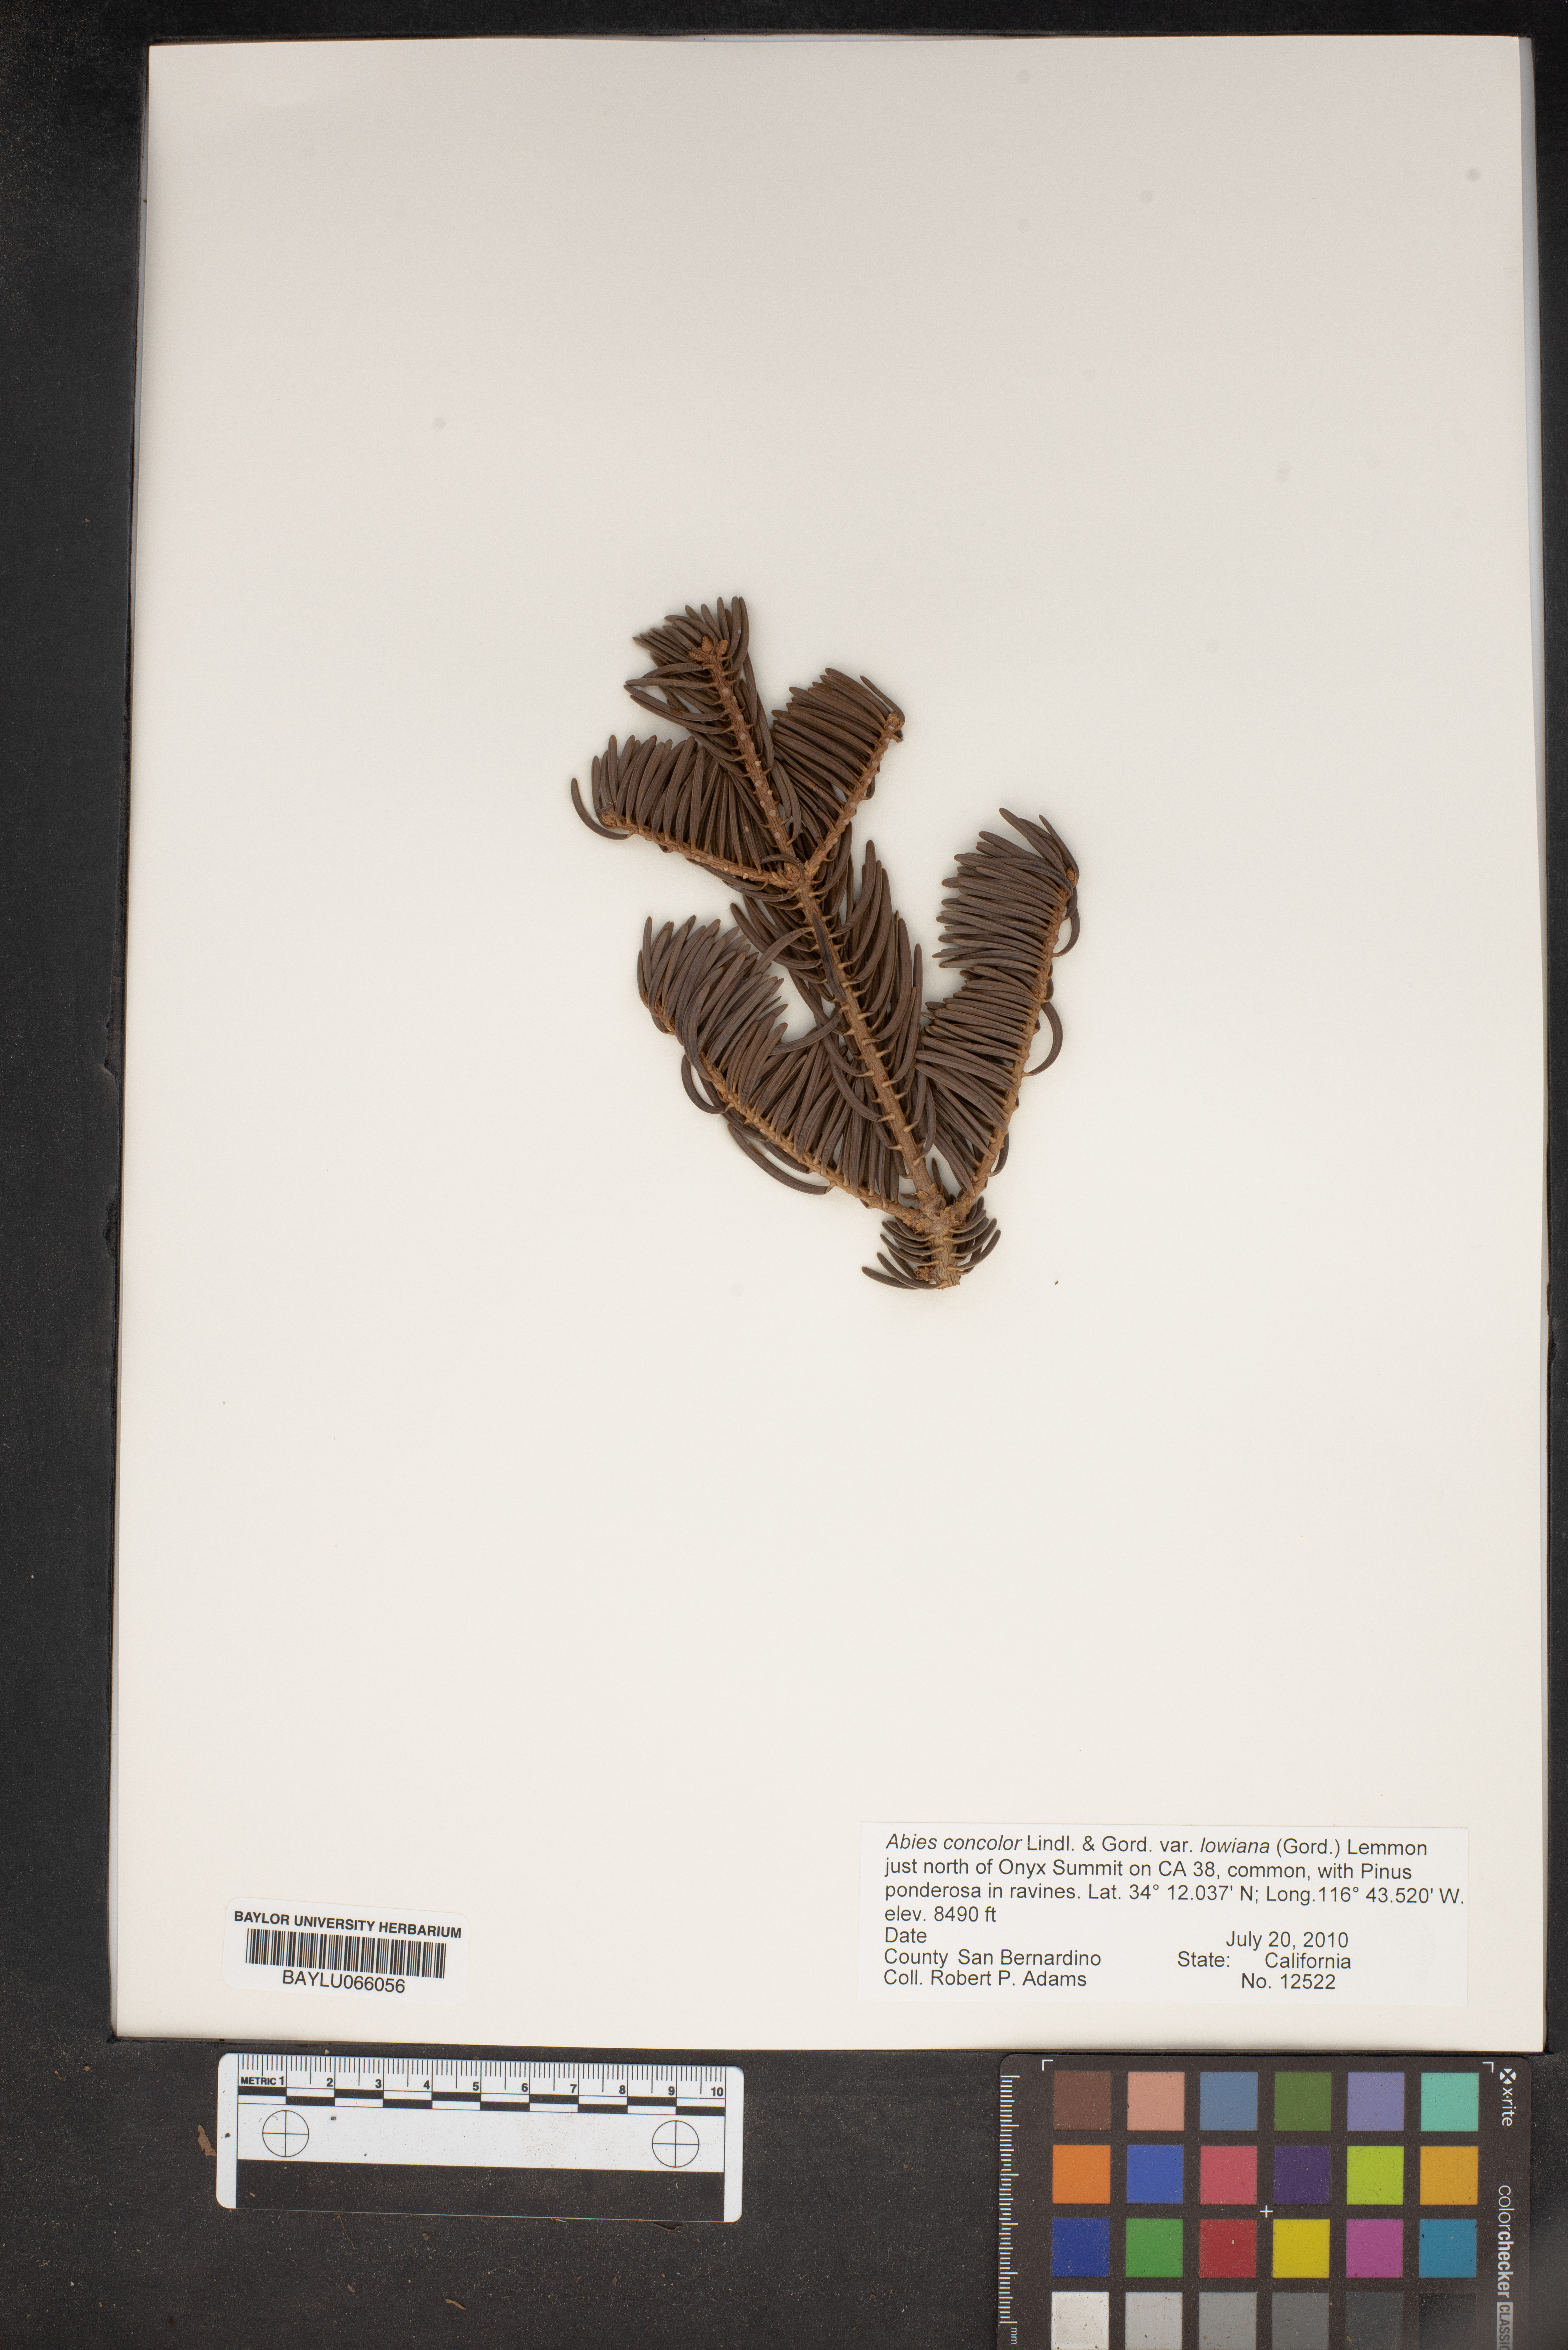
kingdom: Plantae
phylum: Tracheophyta
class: Pinopsida
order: Pinales
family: Pinaceae
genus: Abies
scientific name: Abies concolor
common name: Colorado fir
